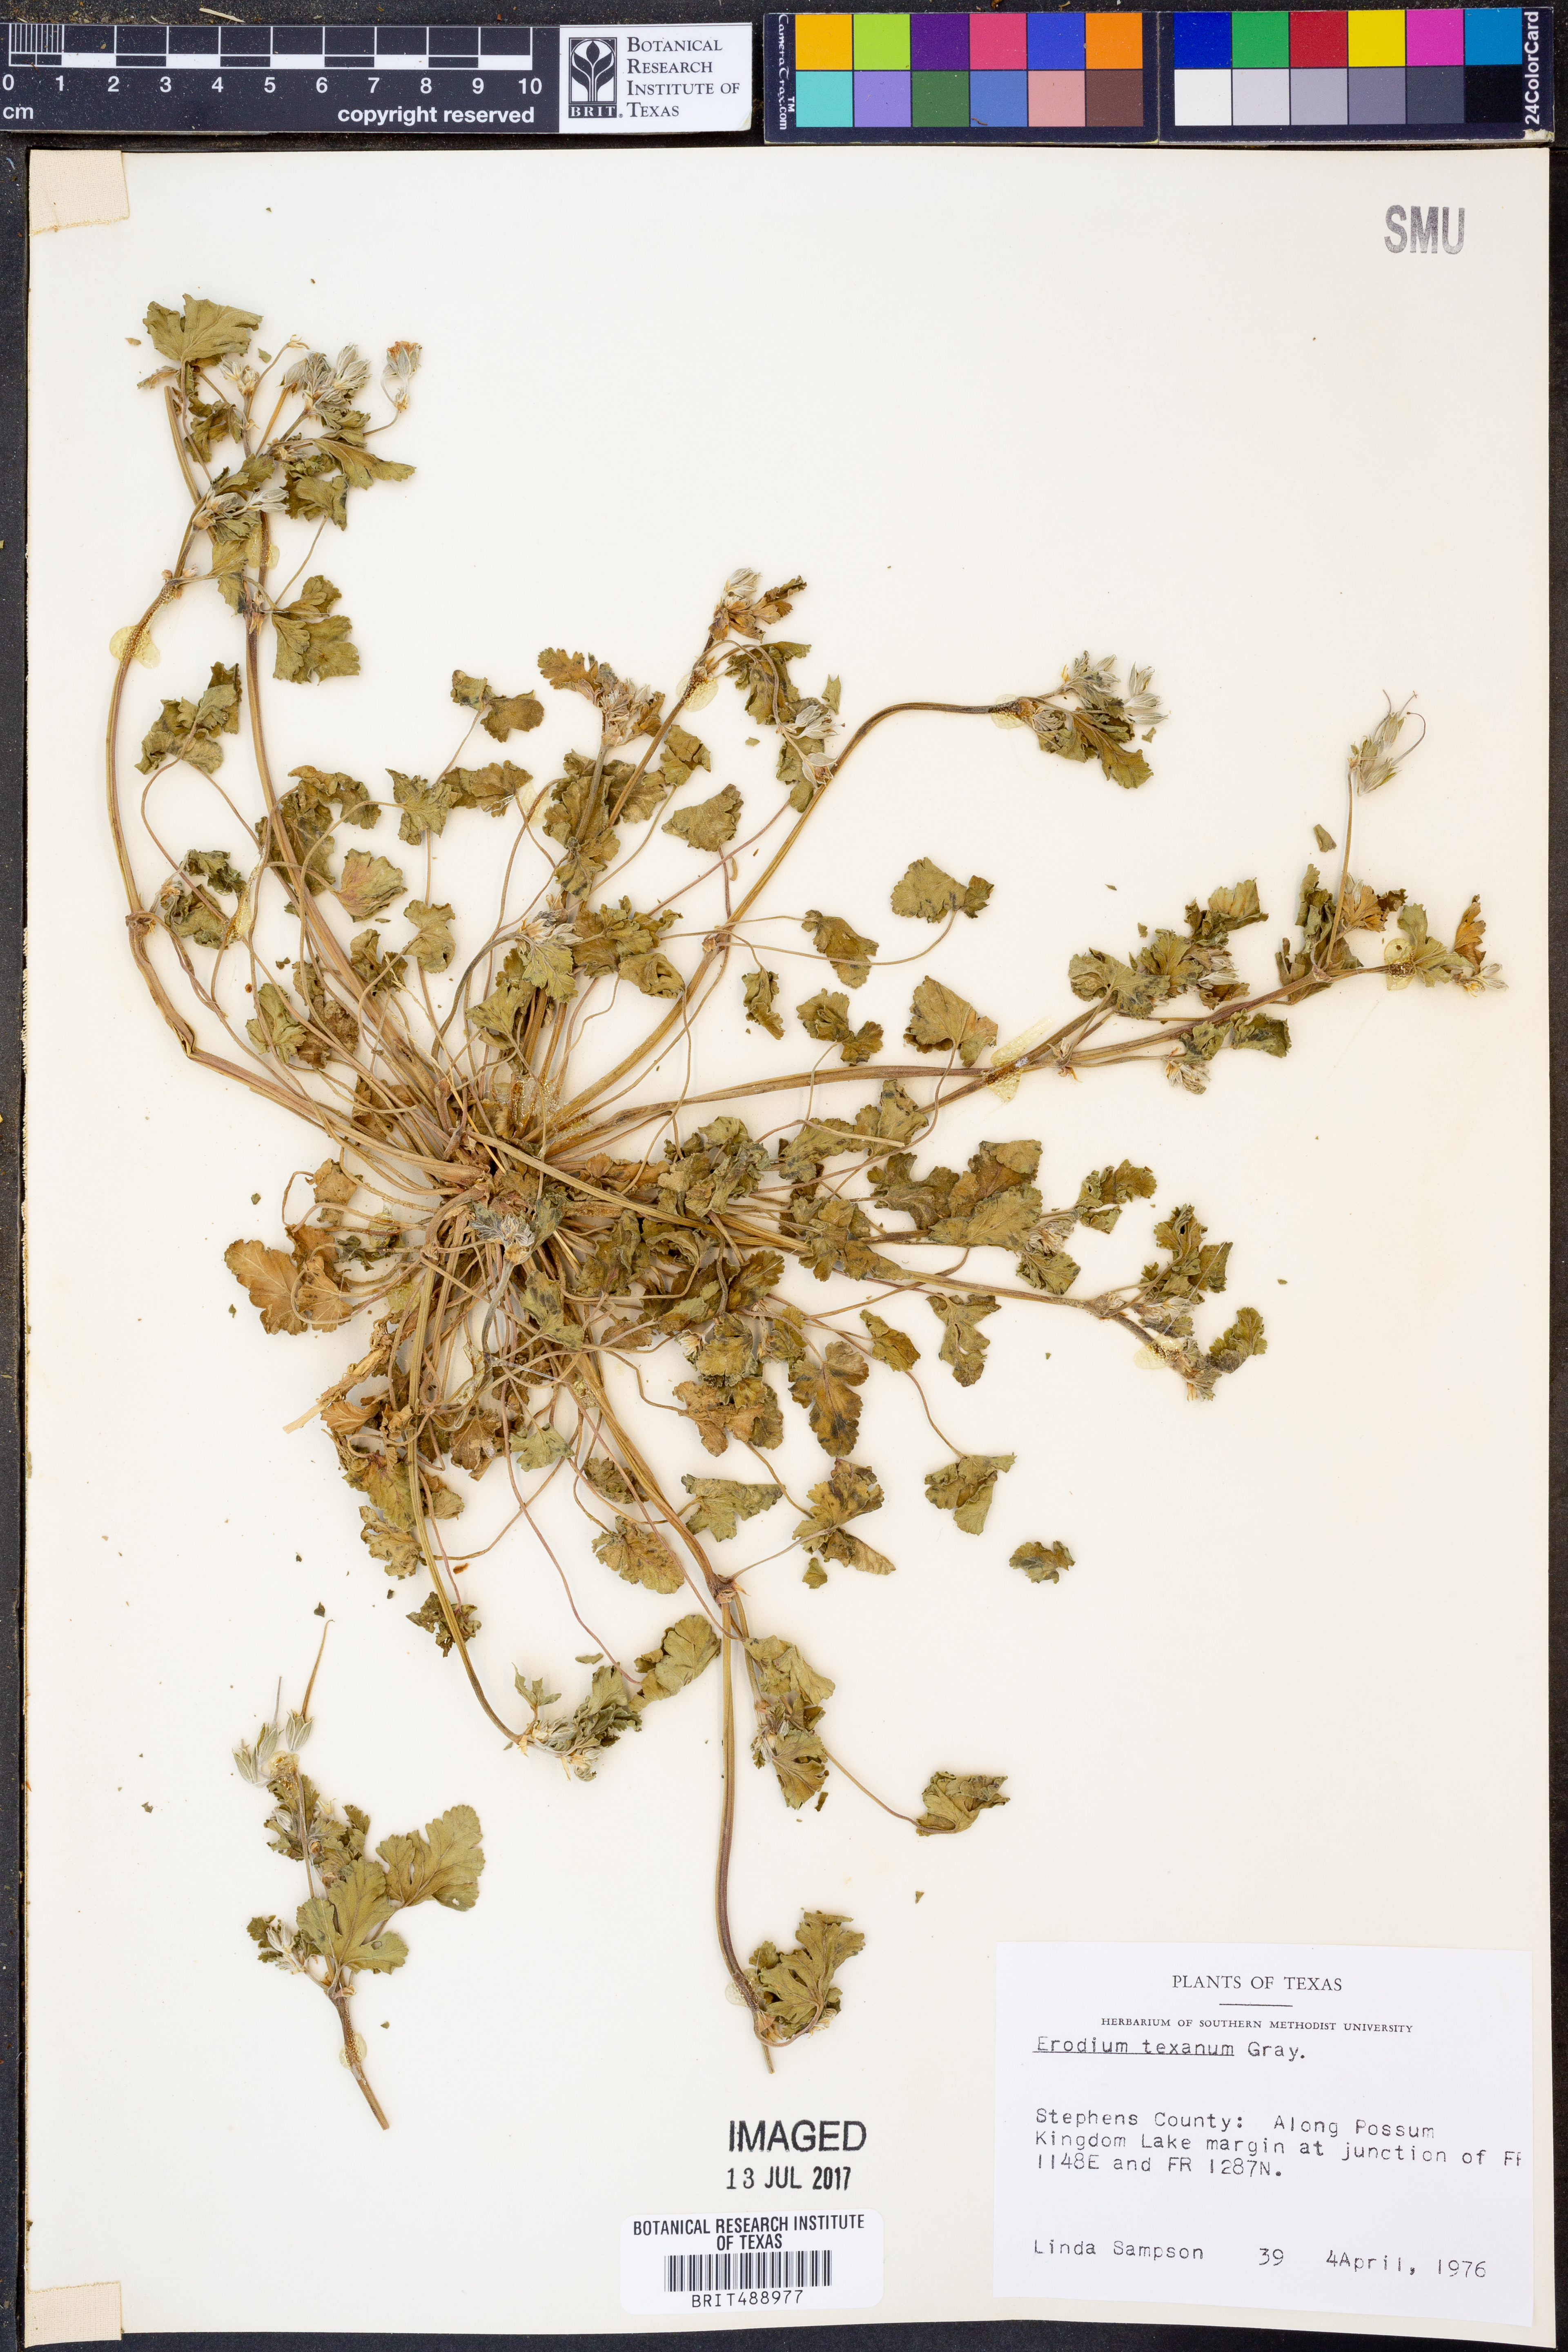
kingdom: Plantae
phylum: Tracheophyta
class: Magnoliopsida
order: Geraniales
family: Geraniaceae
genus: Erodium
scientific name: Erodium texanum
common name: Texas stork's-bill
